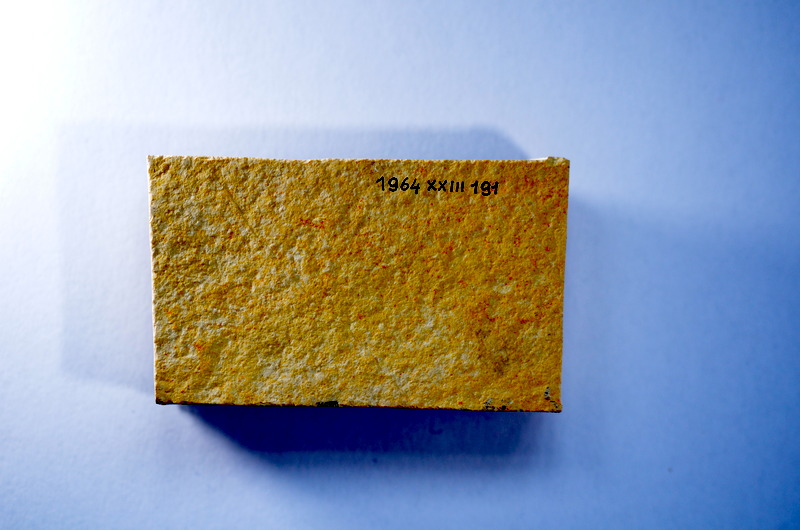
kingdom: Animalia
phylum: Chordata
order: Salmoniformes
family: Orthogonikleithridae
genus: Leptolepides
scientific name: Leptolepides
